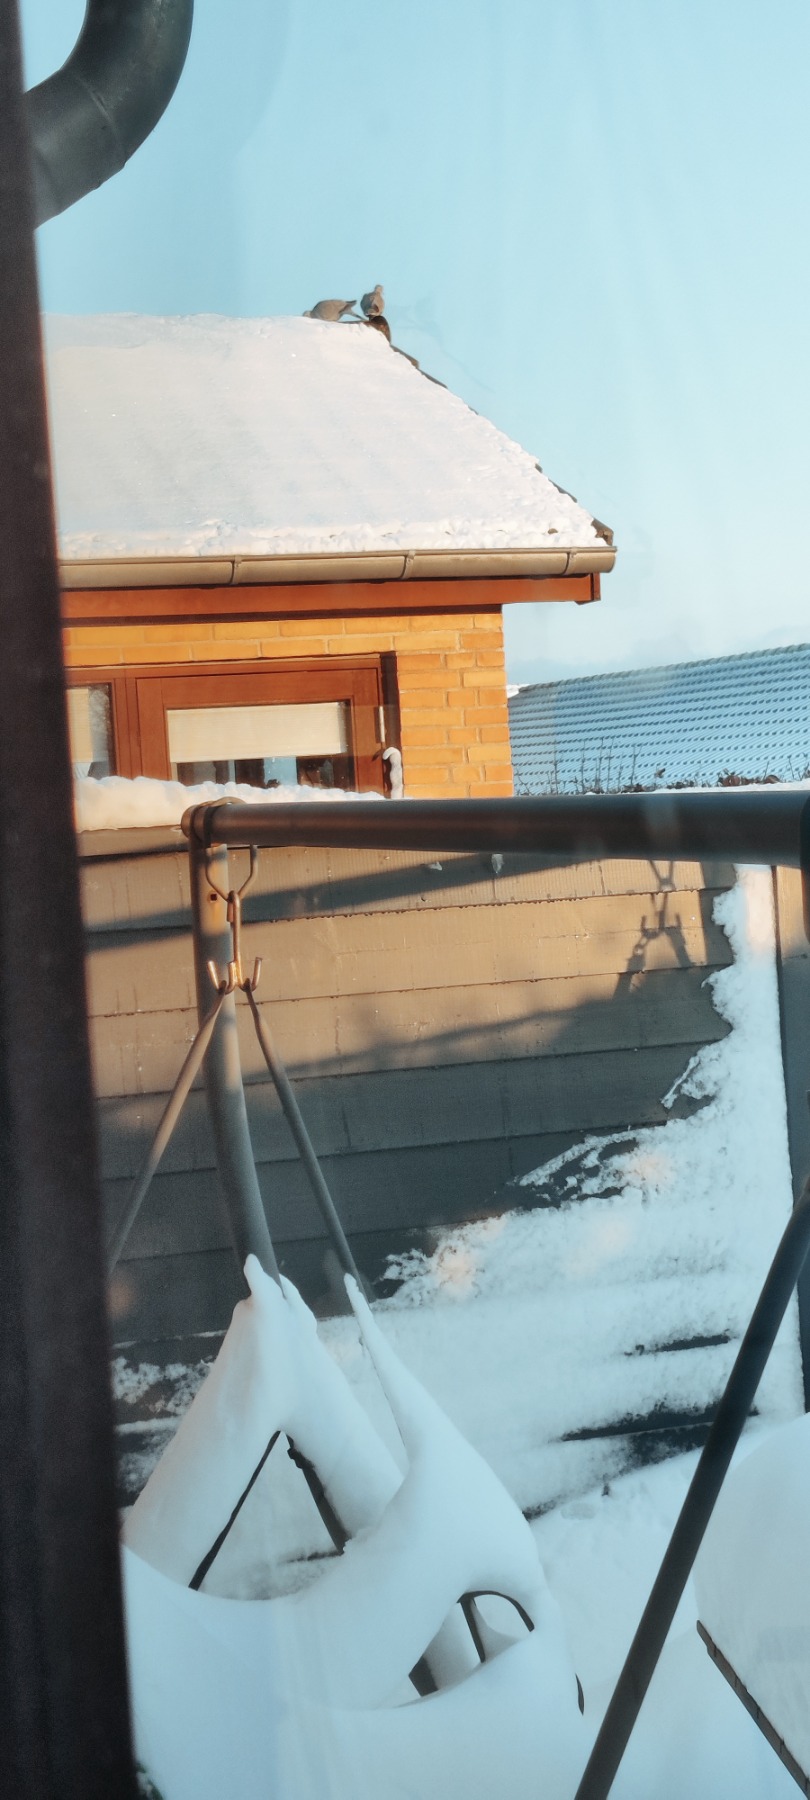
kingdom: Animalia
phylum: Chordata
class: Aves
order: Columbiformes
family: Columbidae
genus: Streptopelia
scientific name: Streptopelia decaocto
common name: Tyrkerdue
